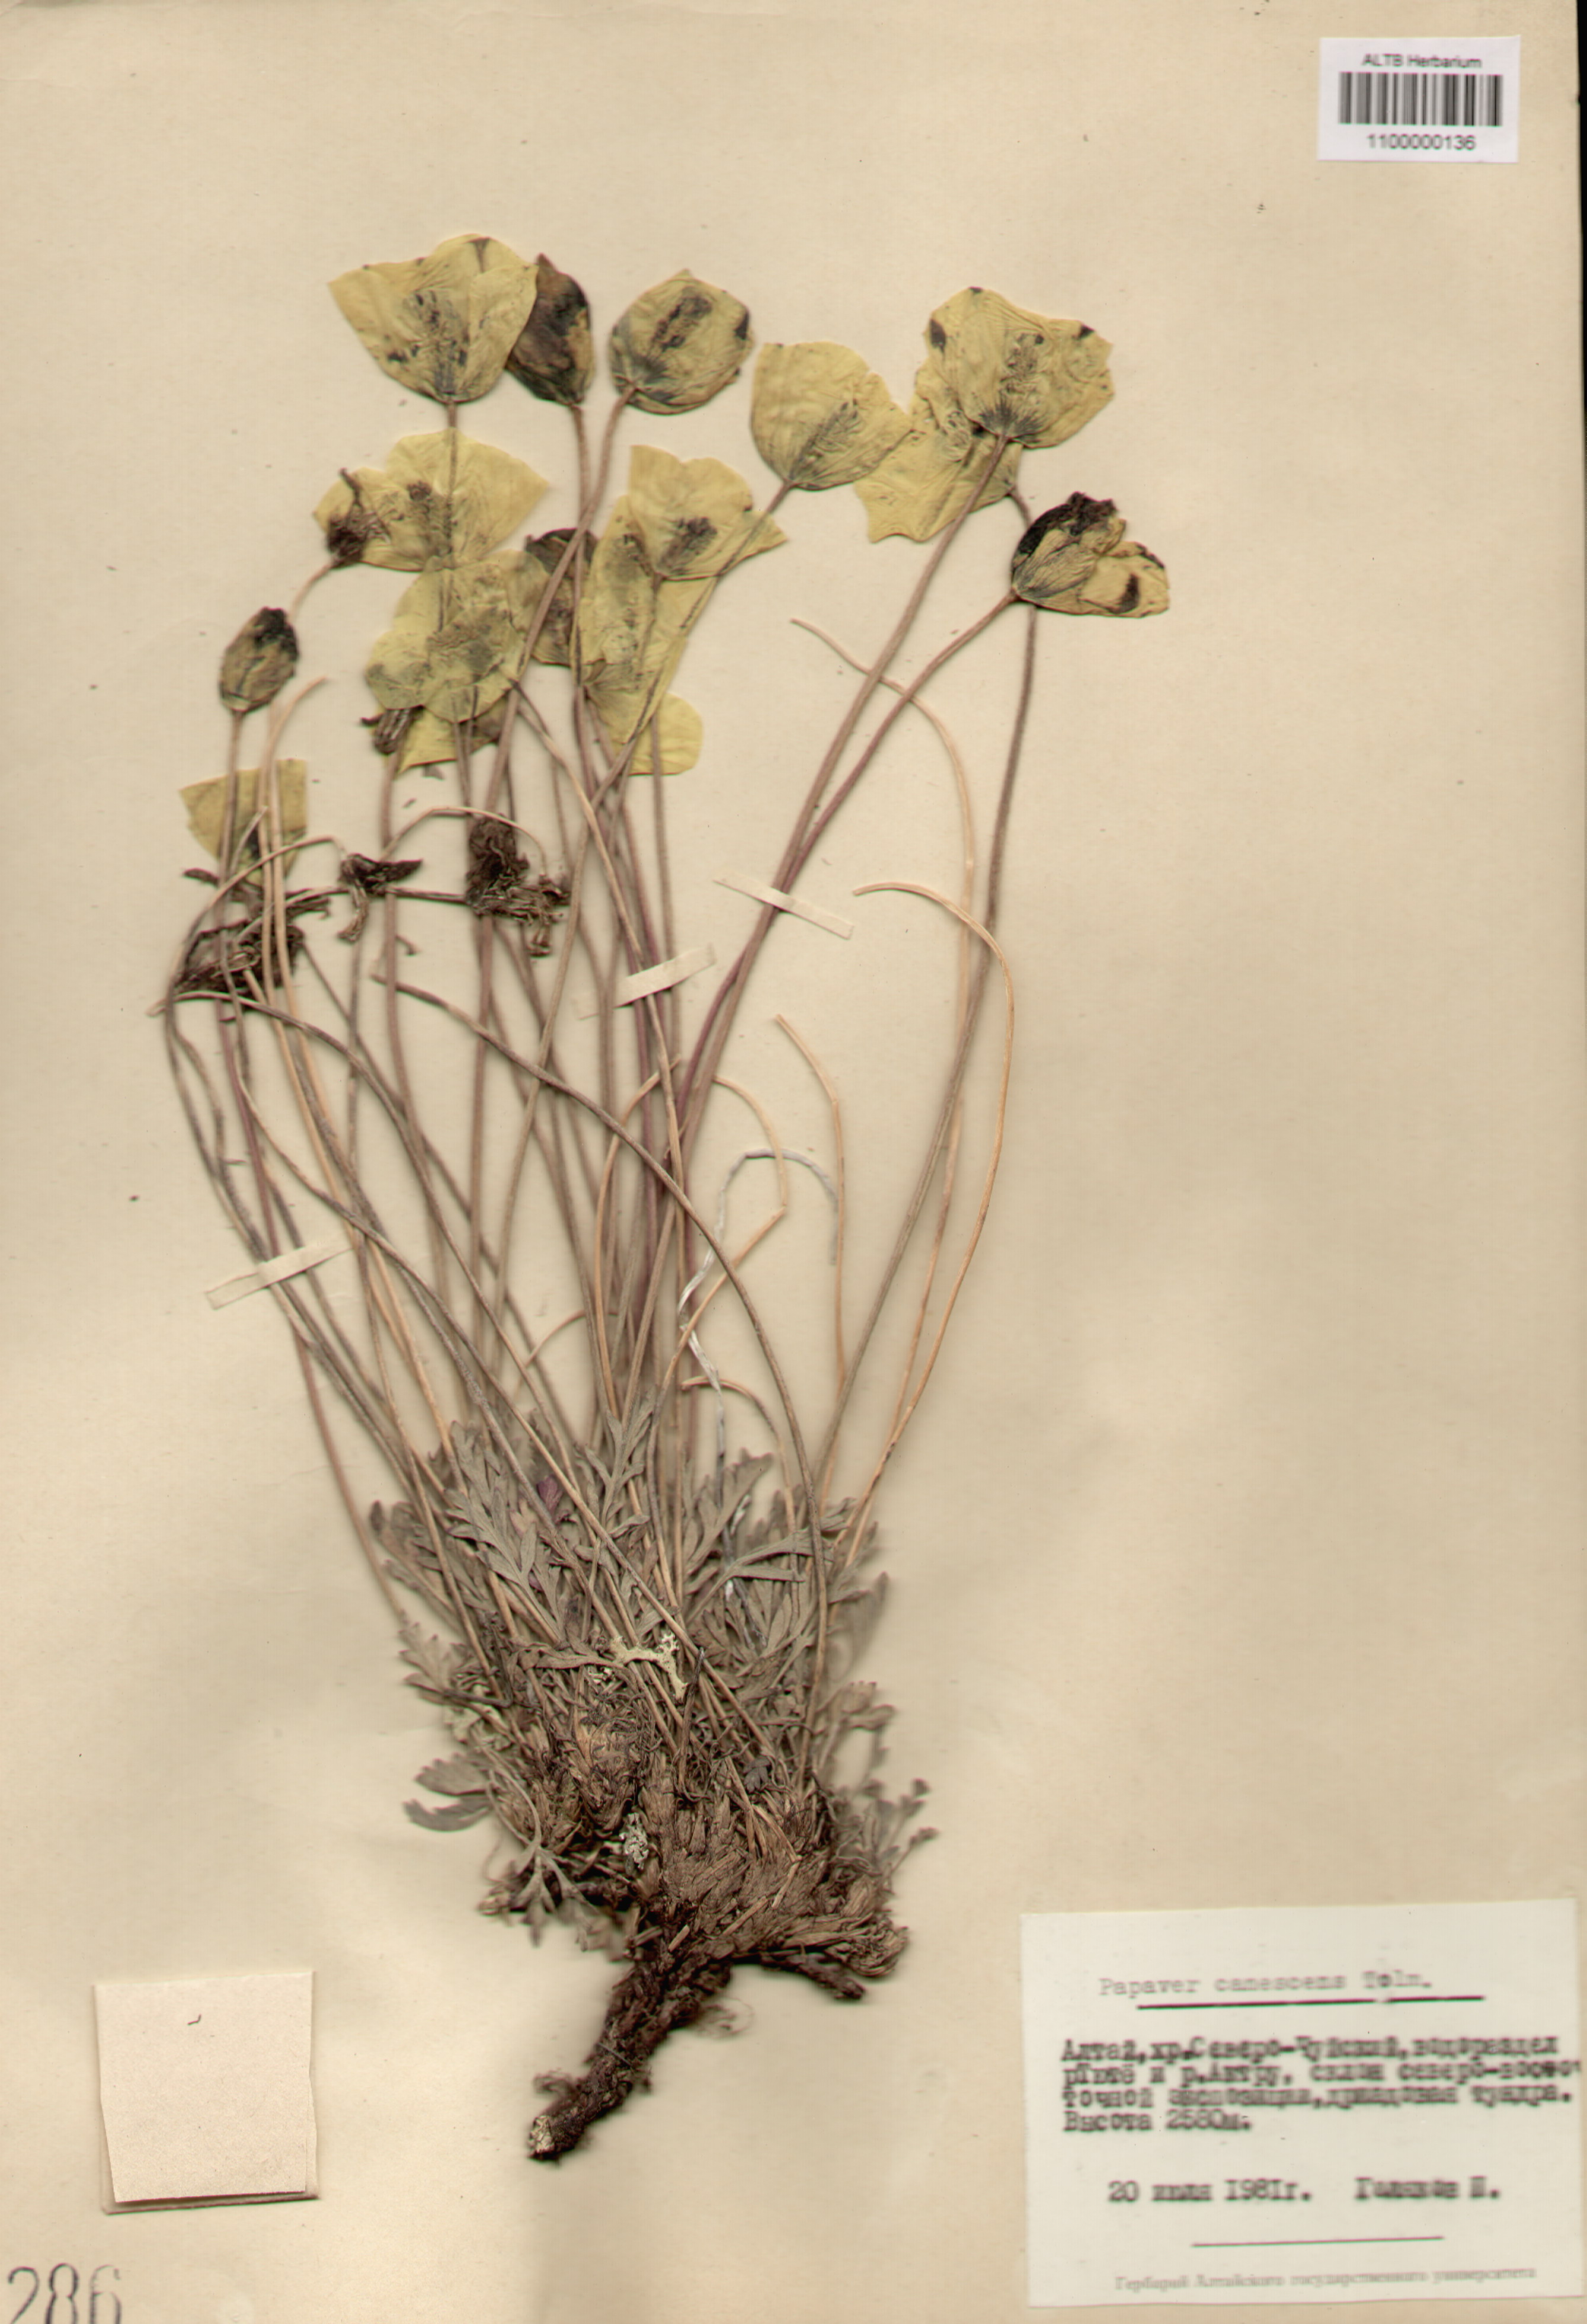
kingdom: Plantae
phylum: Tracheophyta
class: Magnoliopsida
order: Ranunculales
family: Papaveraceae
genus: Papaver
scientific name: Papaver canescens
